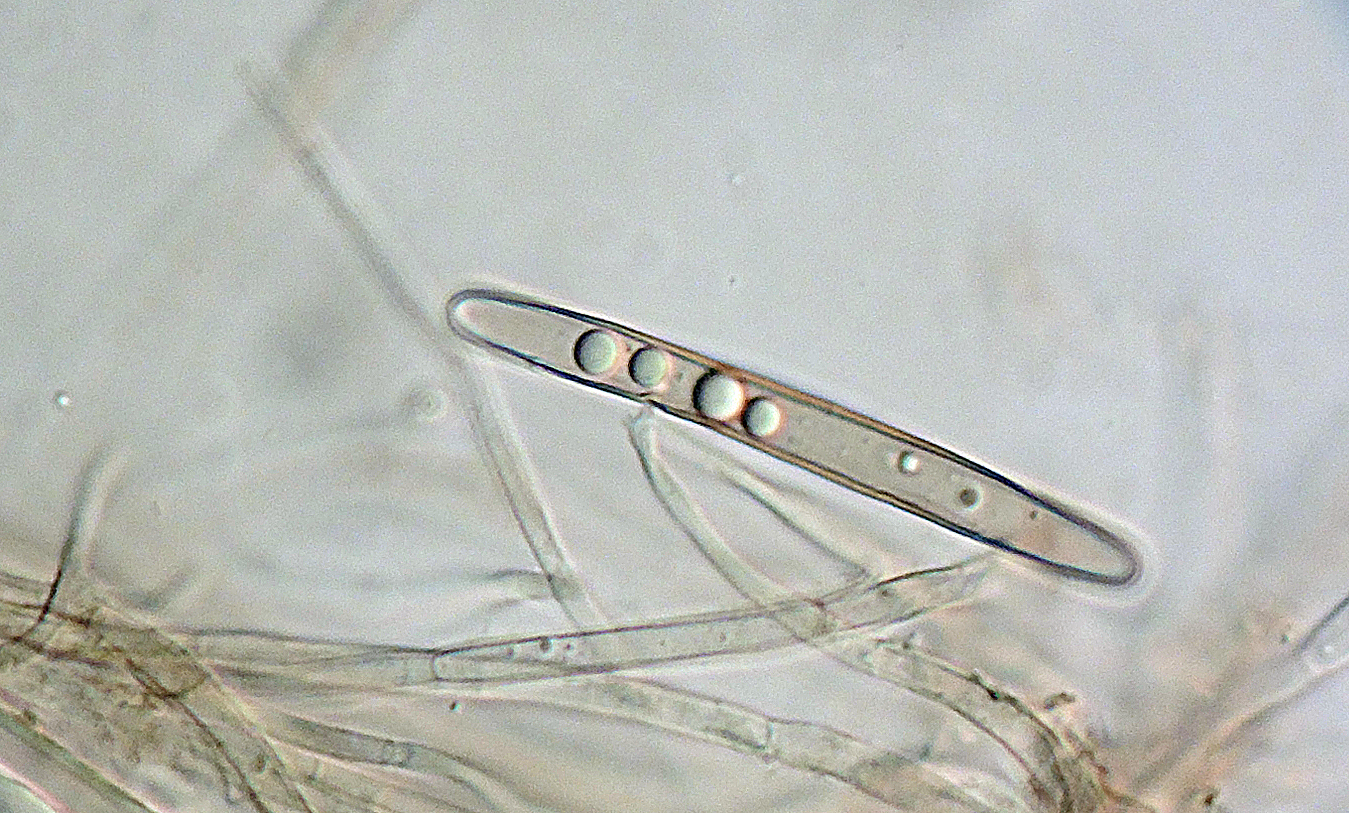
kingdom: Fungi
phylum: Ascomycota
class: Geoglossomycetes
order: Geoglossales
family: Geoglossaceae
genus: Hemileucoglossum
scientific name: Hemileucoglossum elongatum
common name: småsporet jordtunge
